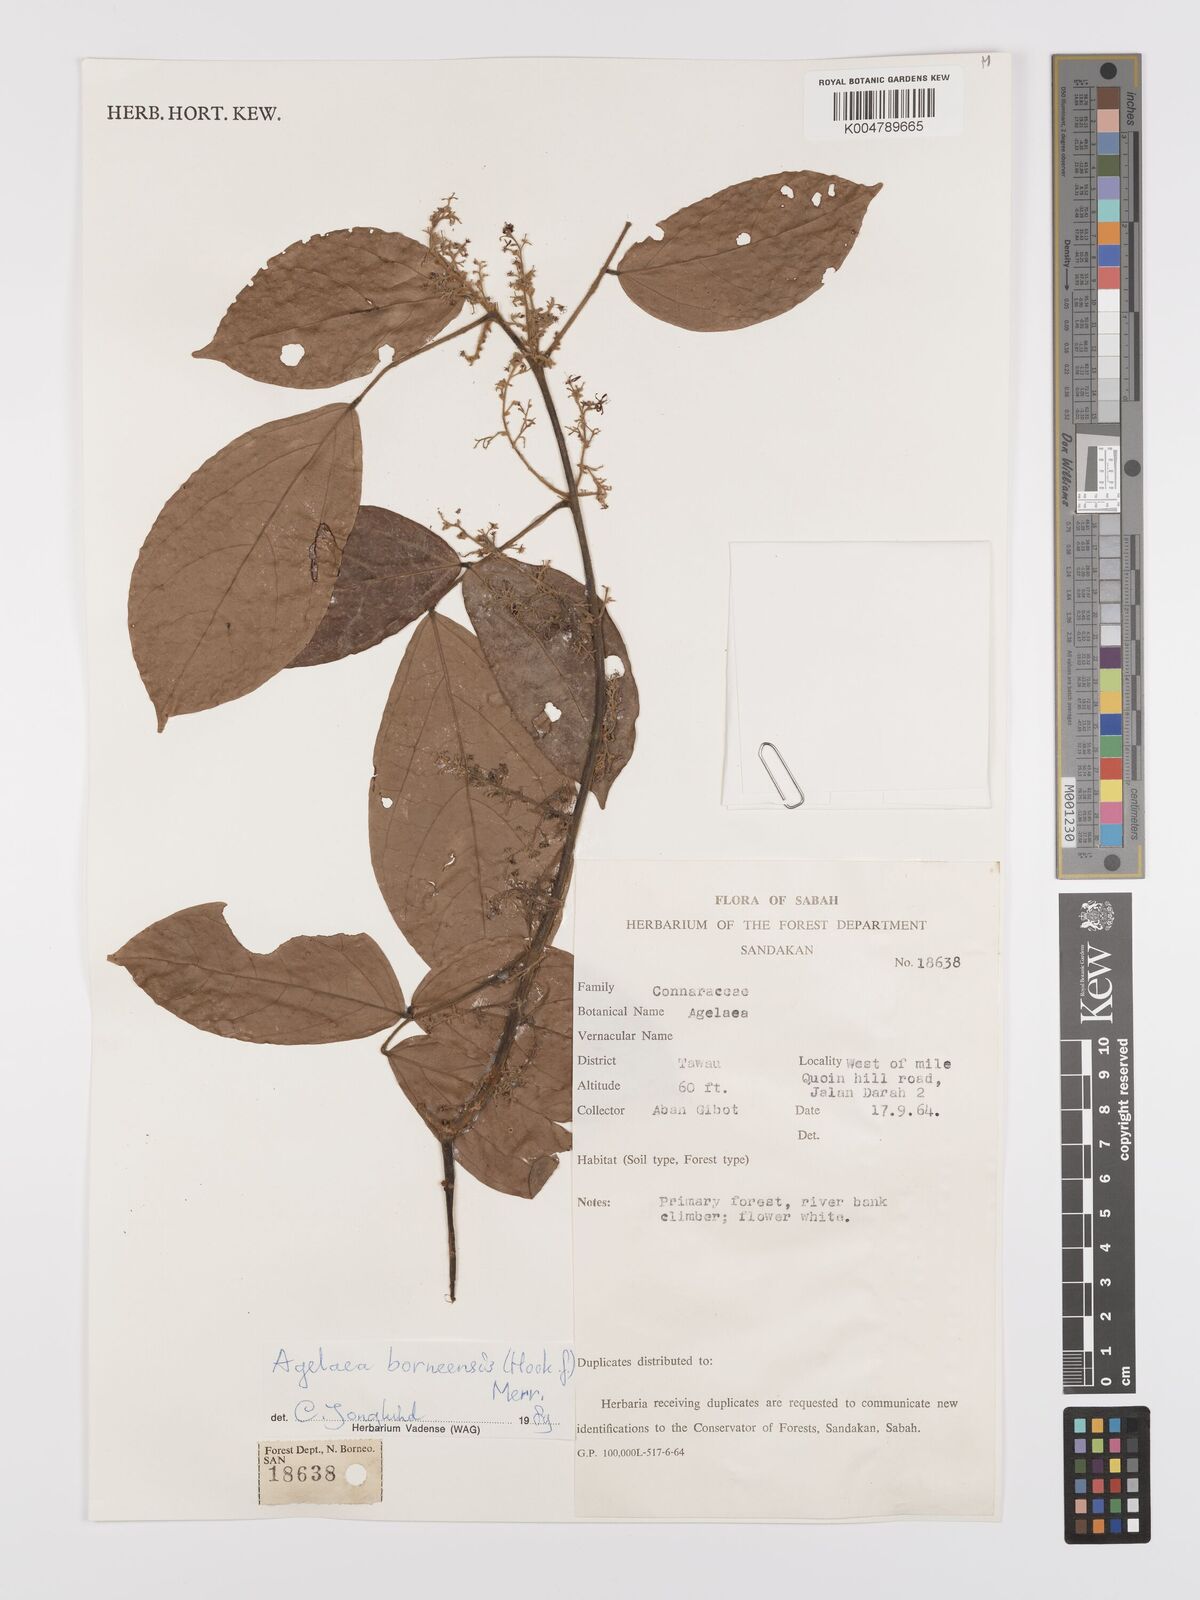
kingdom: Plantae
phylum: Tracheophyta
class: Magnoliopsida
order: Oxalidales
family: Connaraceae
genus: Agelaea
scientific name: Agelaea borneensis
